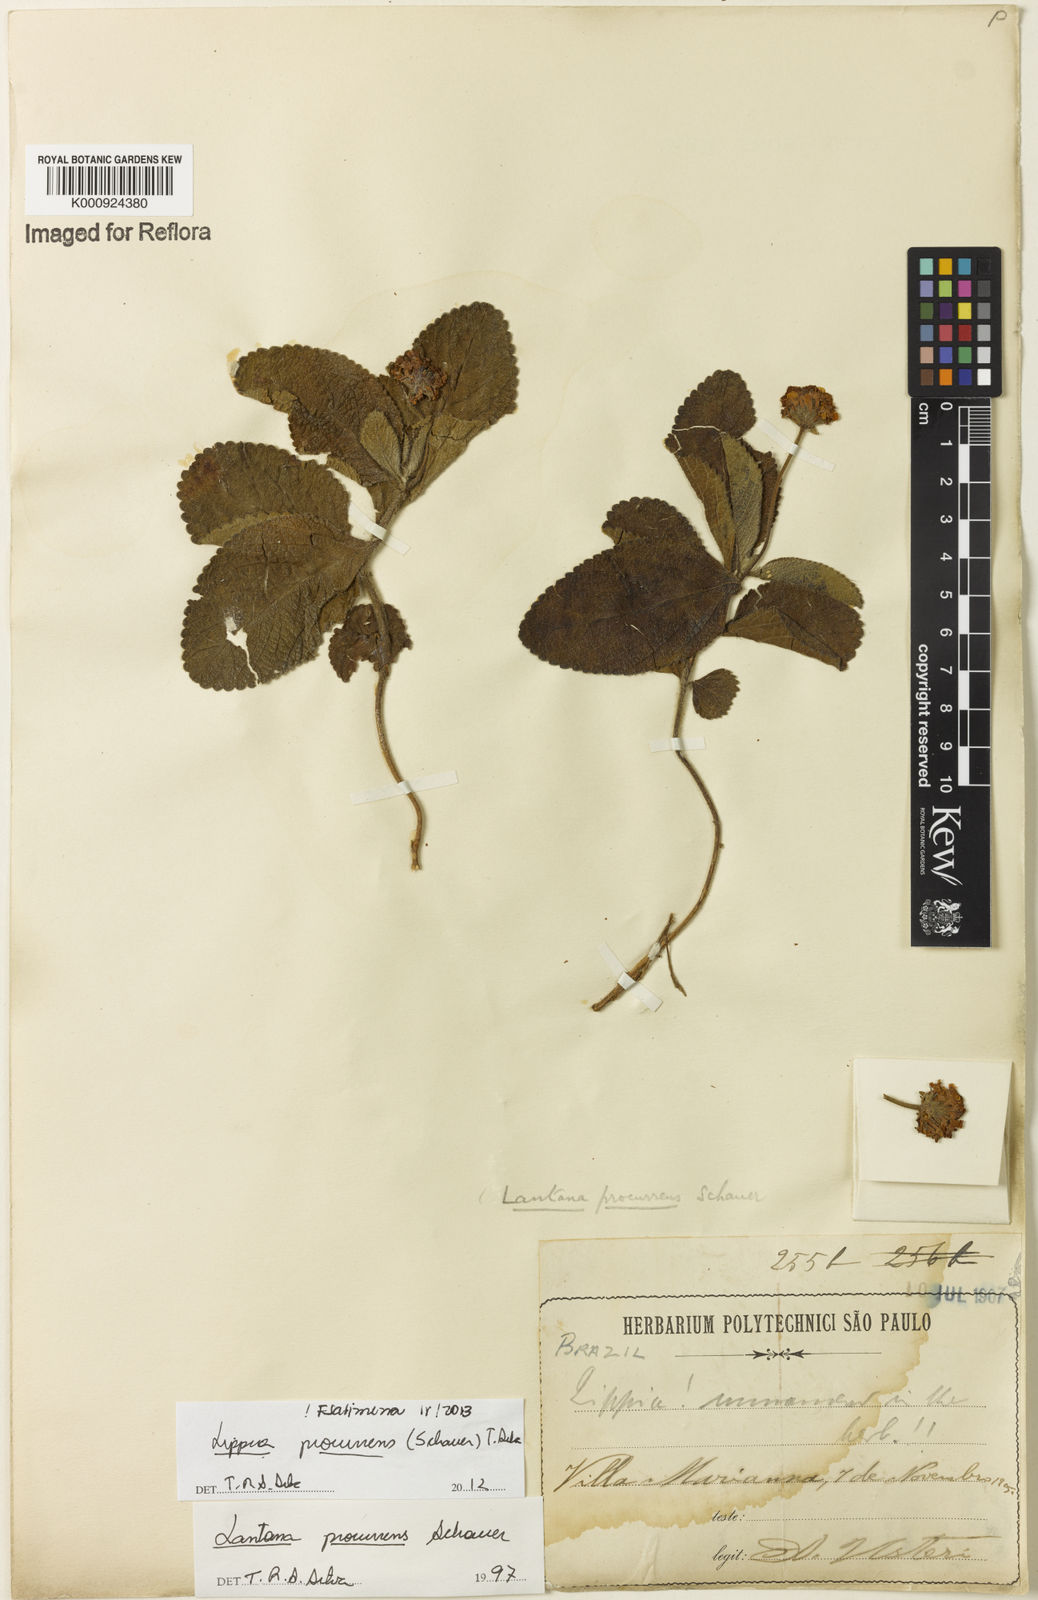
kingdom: Plantae
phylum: Tracheophyta
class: Magnoliopsida
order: Lamiales
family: Verbenaceae
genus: Lippia
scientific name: Lippia procurrens
